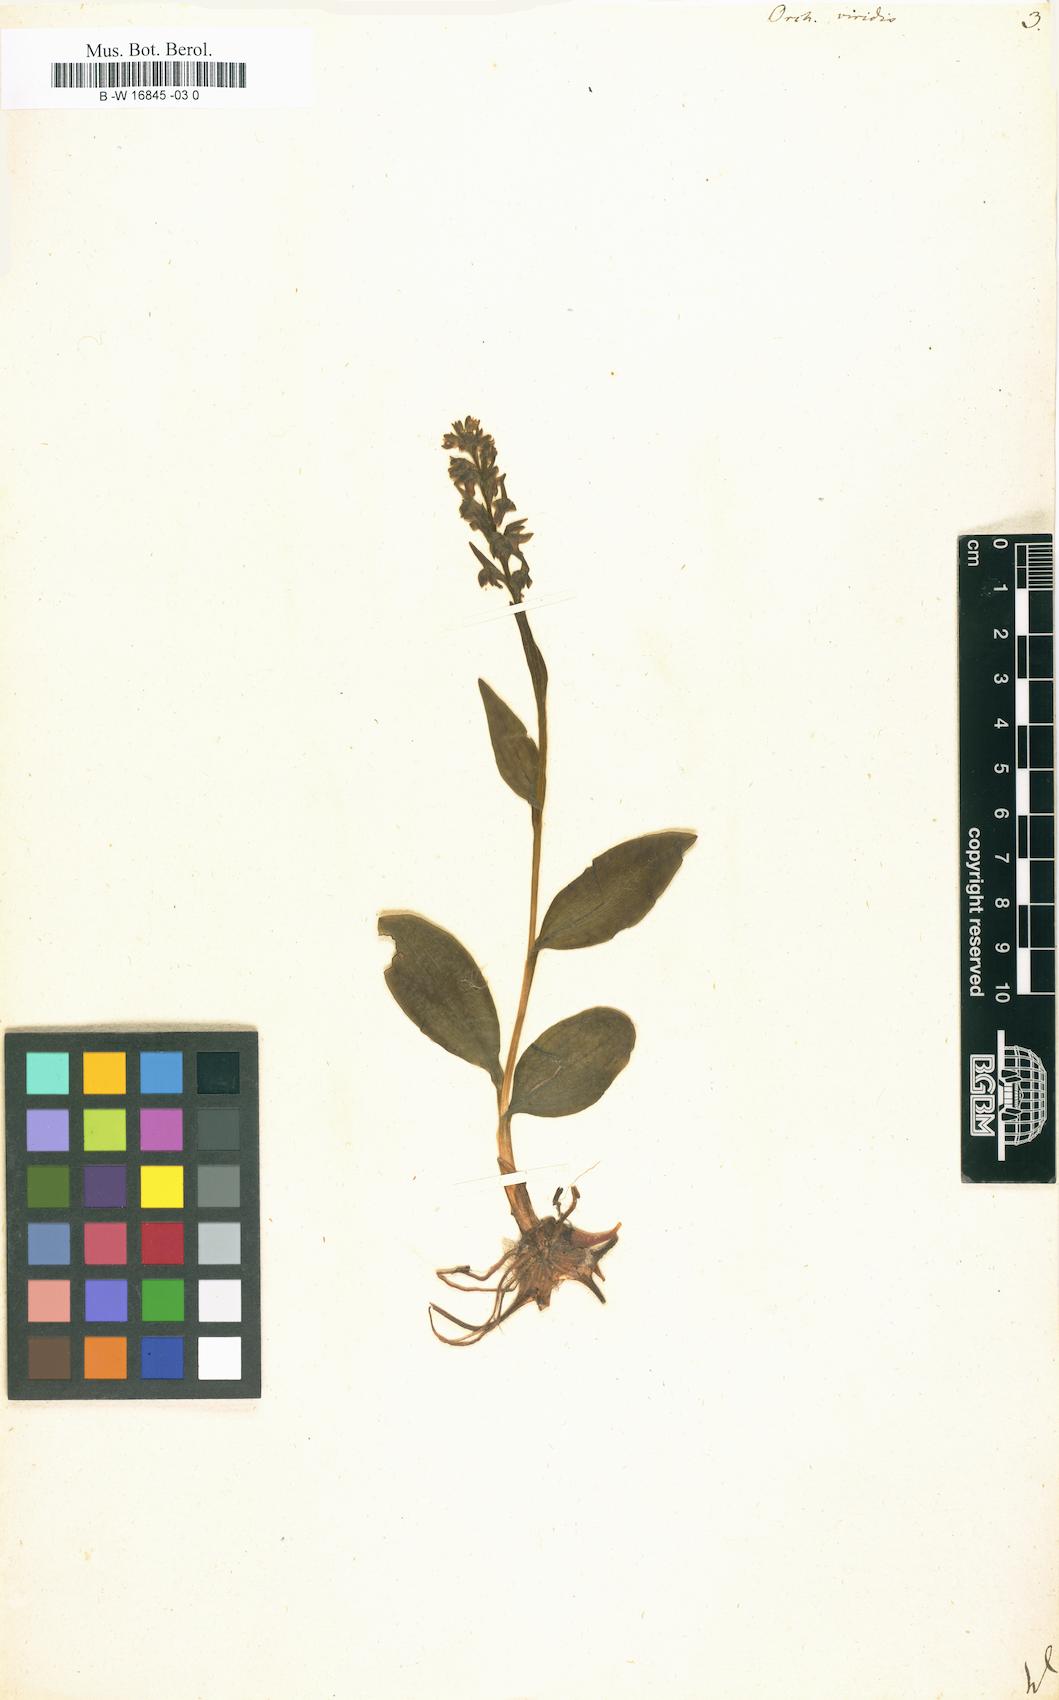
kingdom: Plantae
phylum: Tracheophyta
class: Liliopsida
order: Asparagales
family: Orchidaceae
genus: Dactylorhiza
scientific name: Dactylorhiza viridis
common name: Longbract frog orchid
